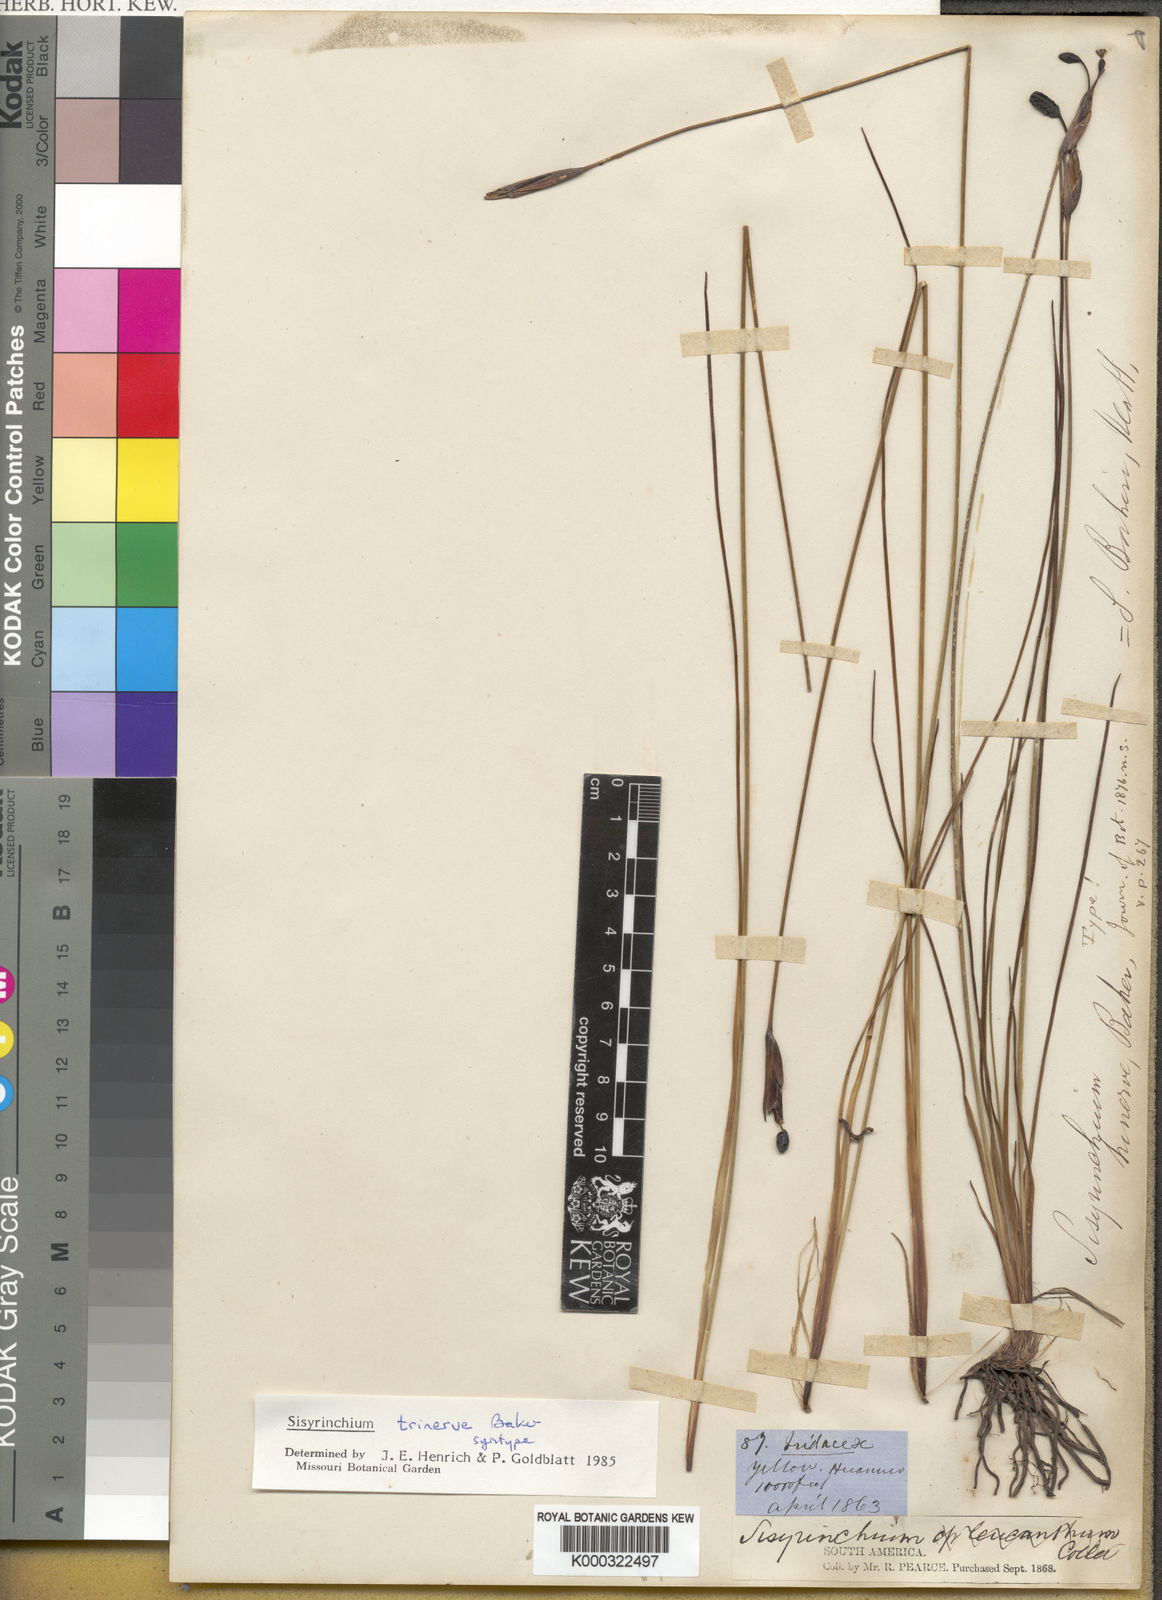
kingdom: Plantae
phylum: Tracheophyta
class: Liliopsida
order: Asparagales
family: Iridaceae
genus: Olsynium
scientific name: Olsynium trinerve
